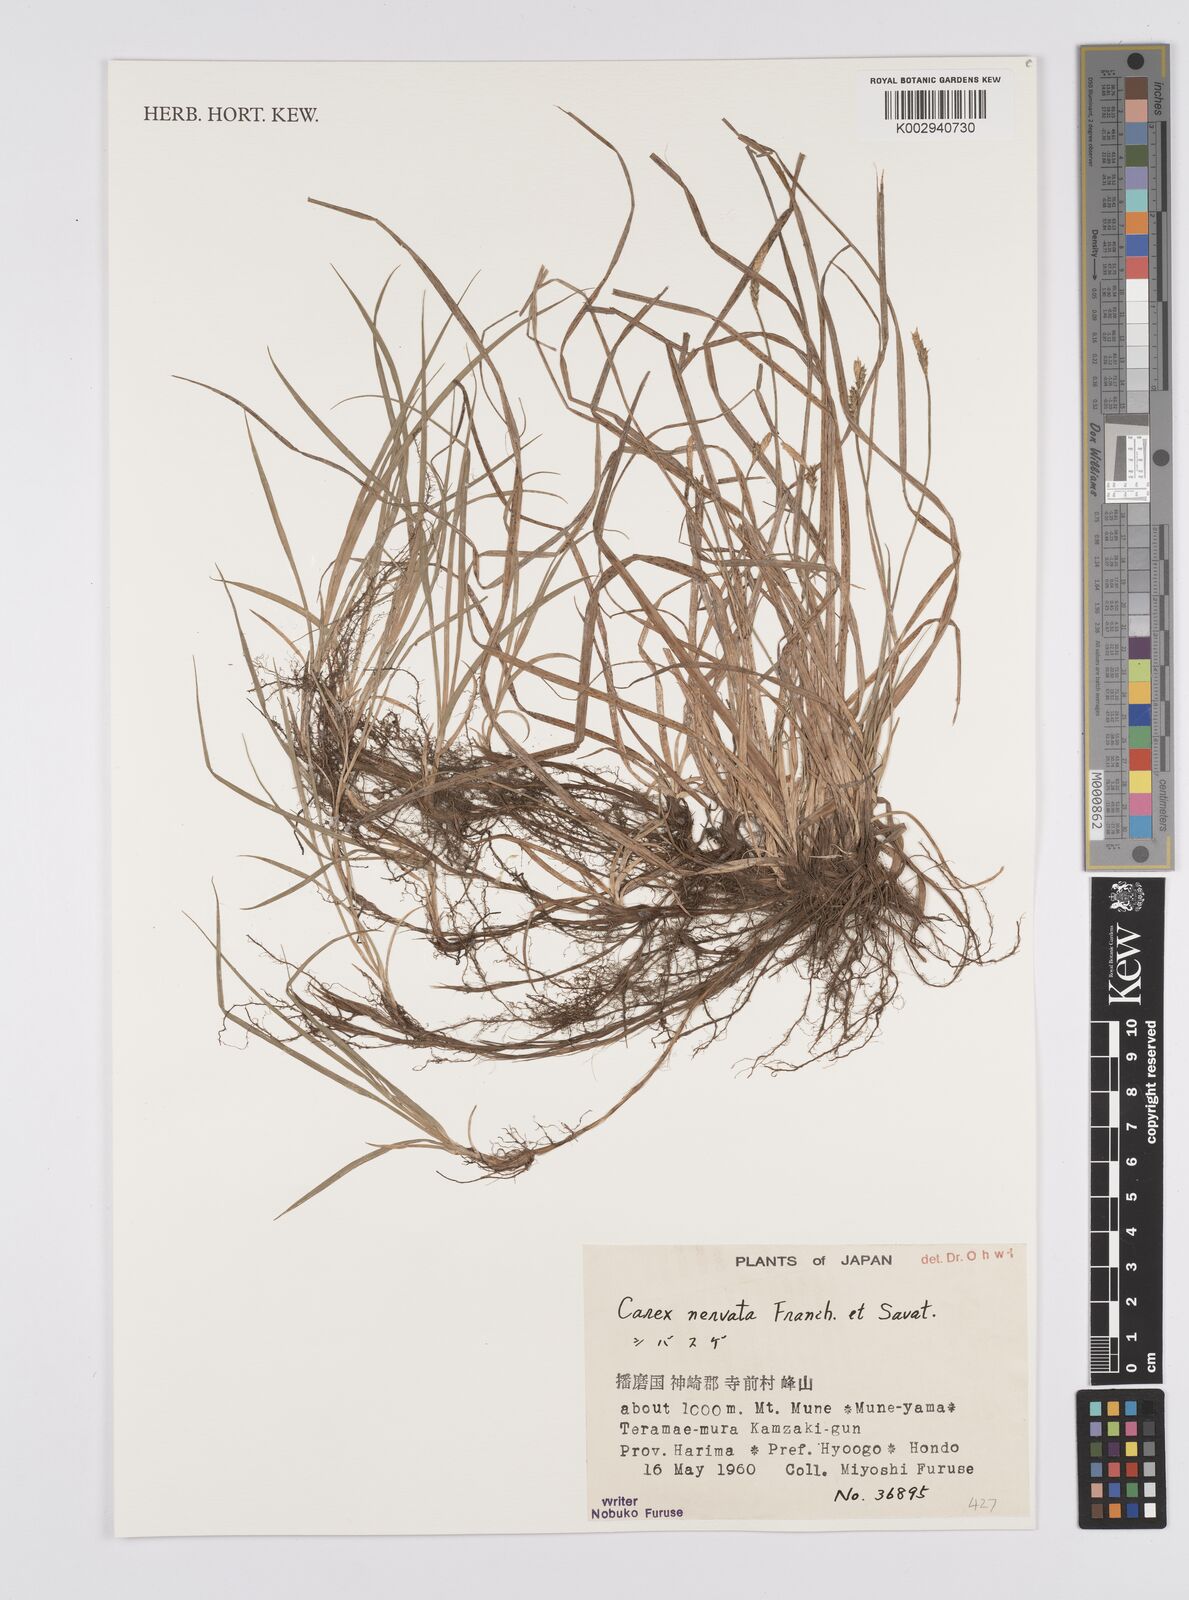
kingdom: Plantae
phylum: Tracheophyta
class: Liliopsida
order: Poales
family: Cyperaceae
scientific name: Cyperaceae
